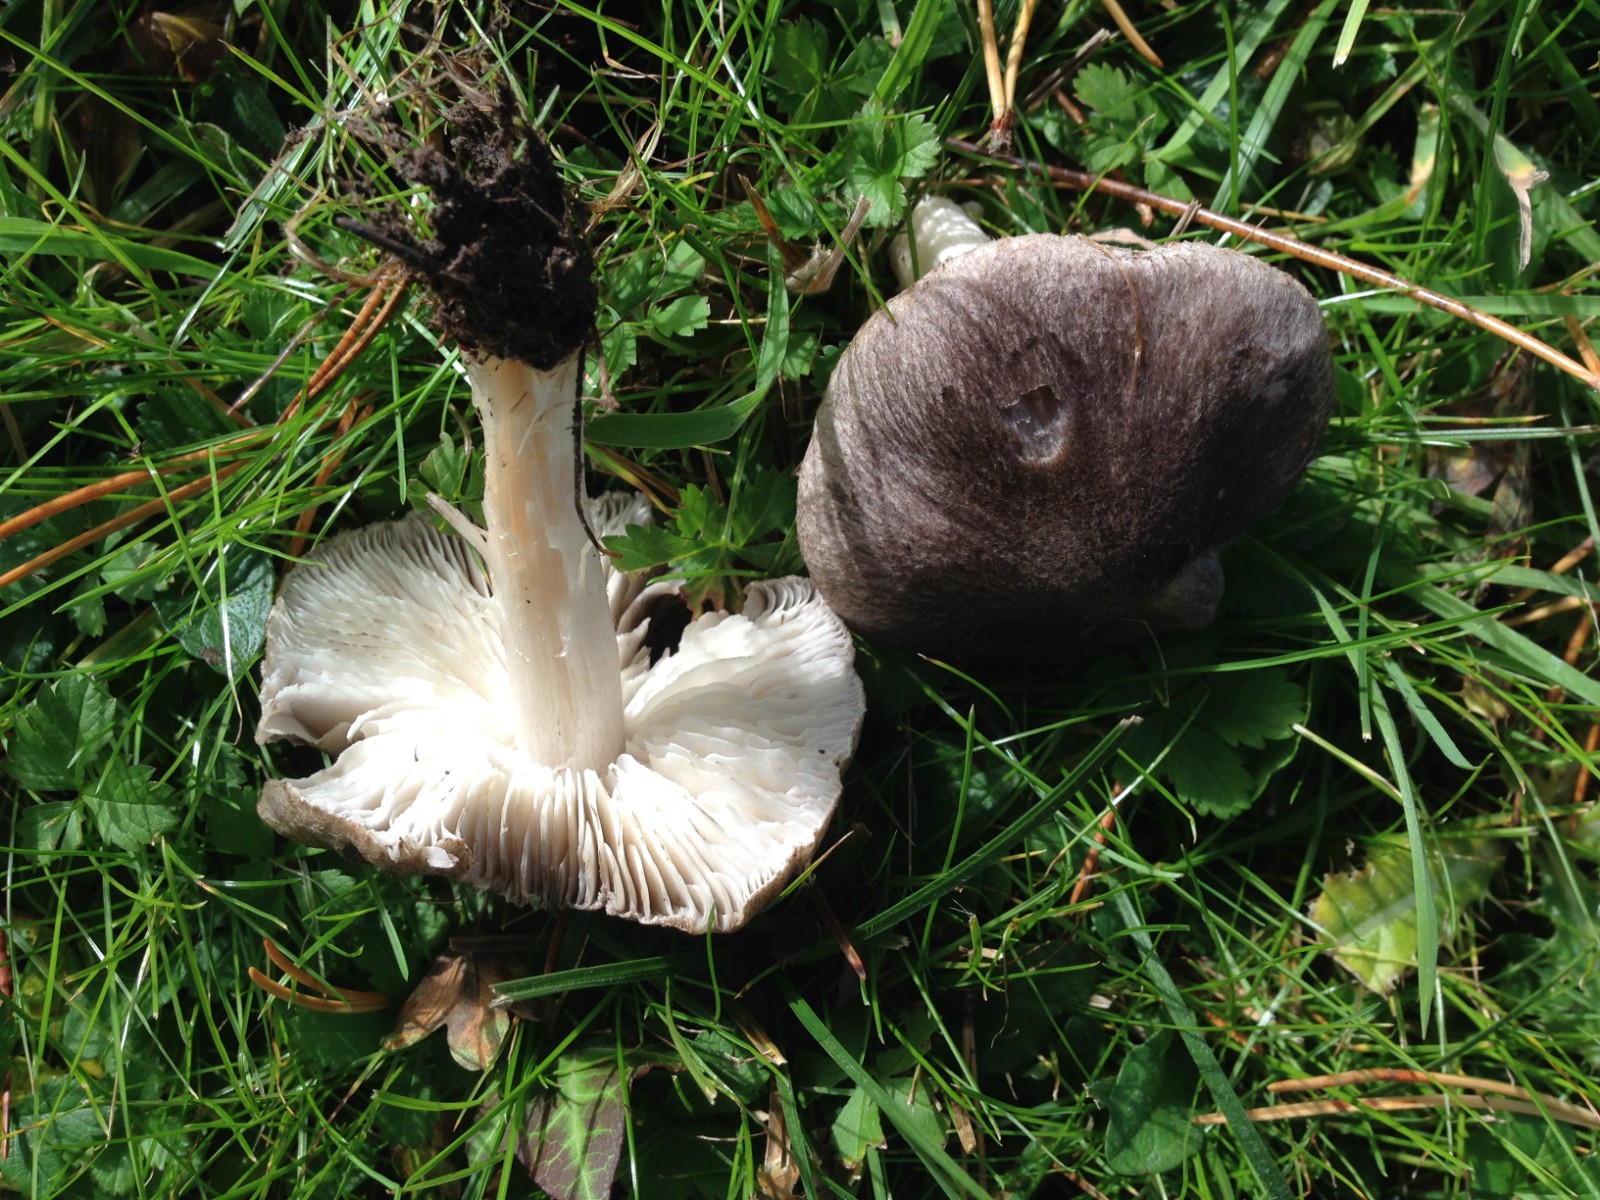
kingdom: Fungi
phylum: Basidiomycota
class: Agaricomycetes
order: Agaricales
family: Tricholomataceae
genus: Tricholoma
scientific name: Tricholoma terreum
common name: jordfarvet ridderhat
